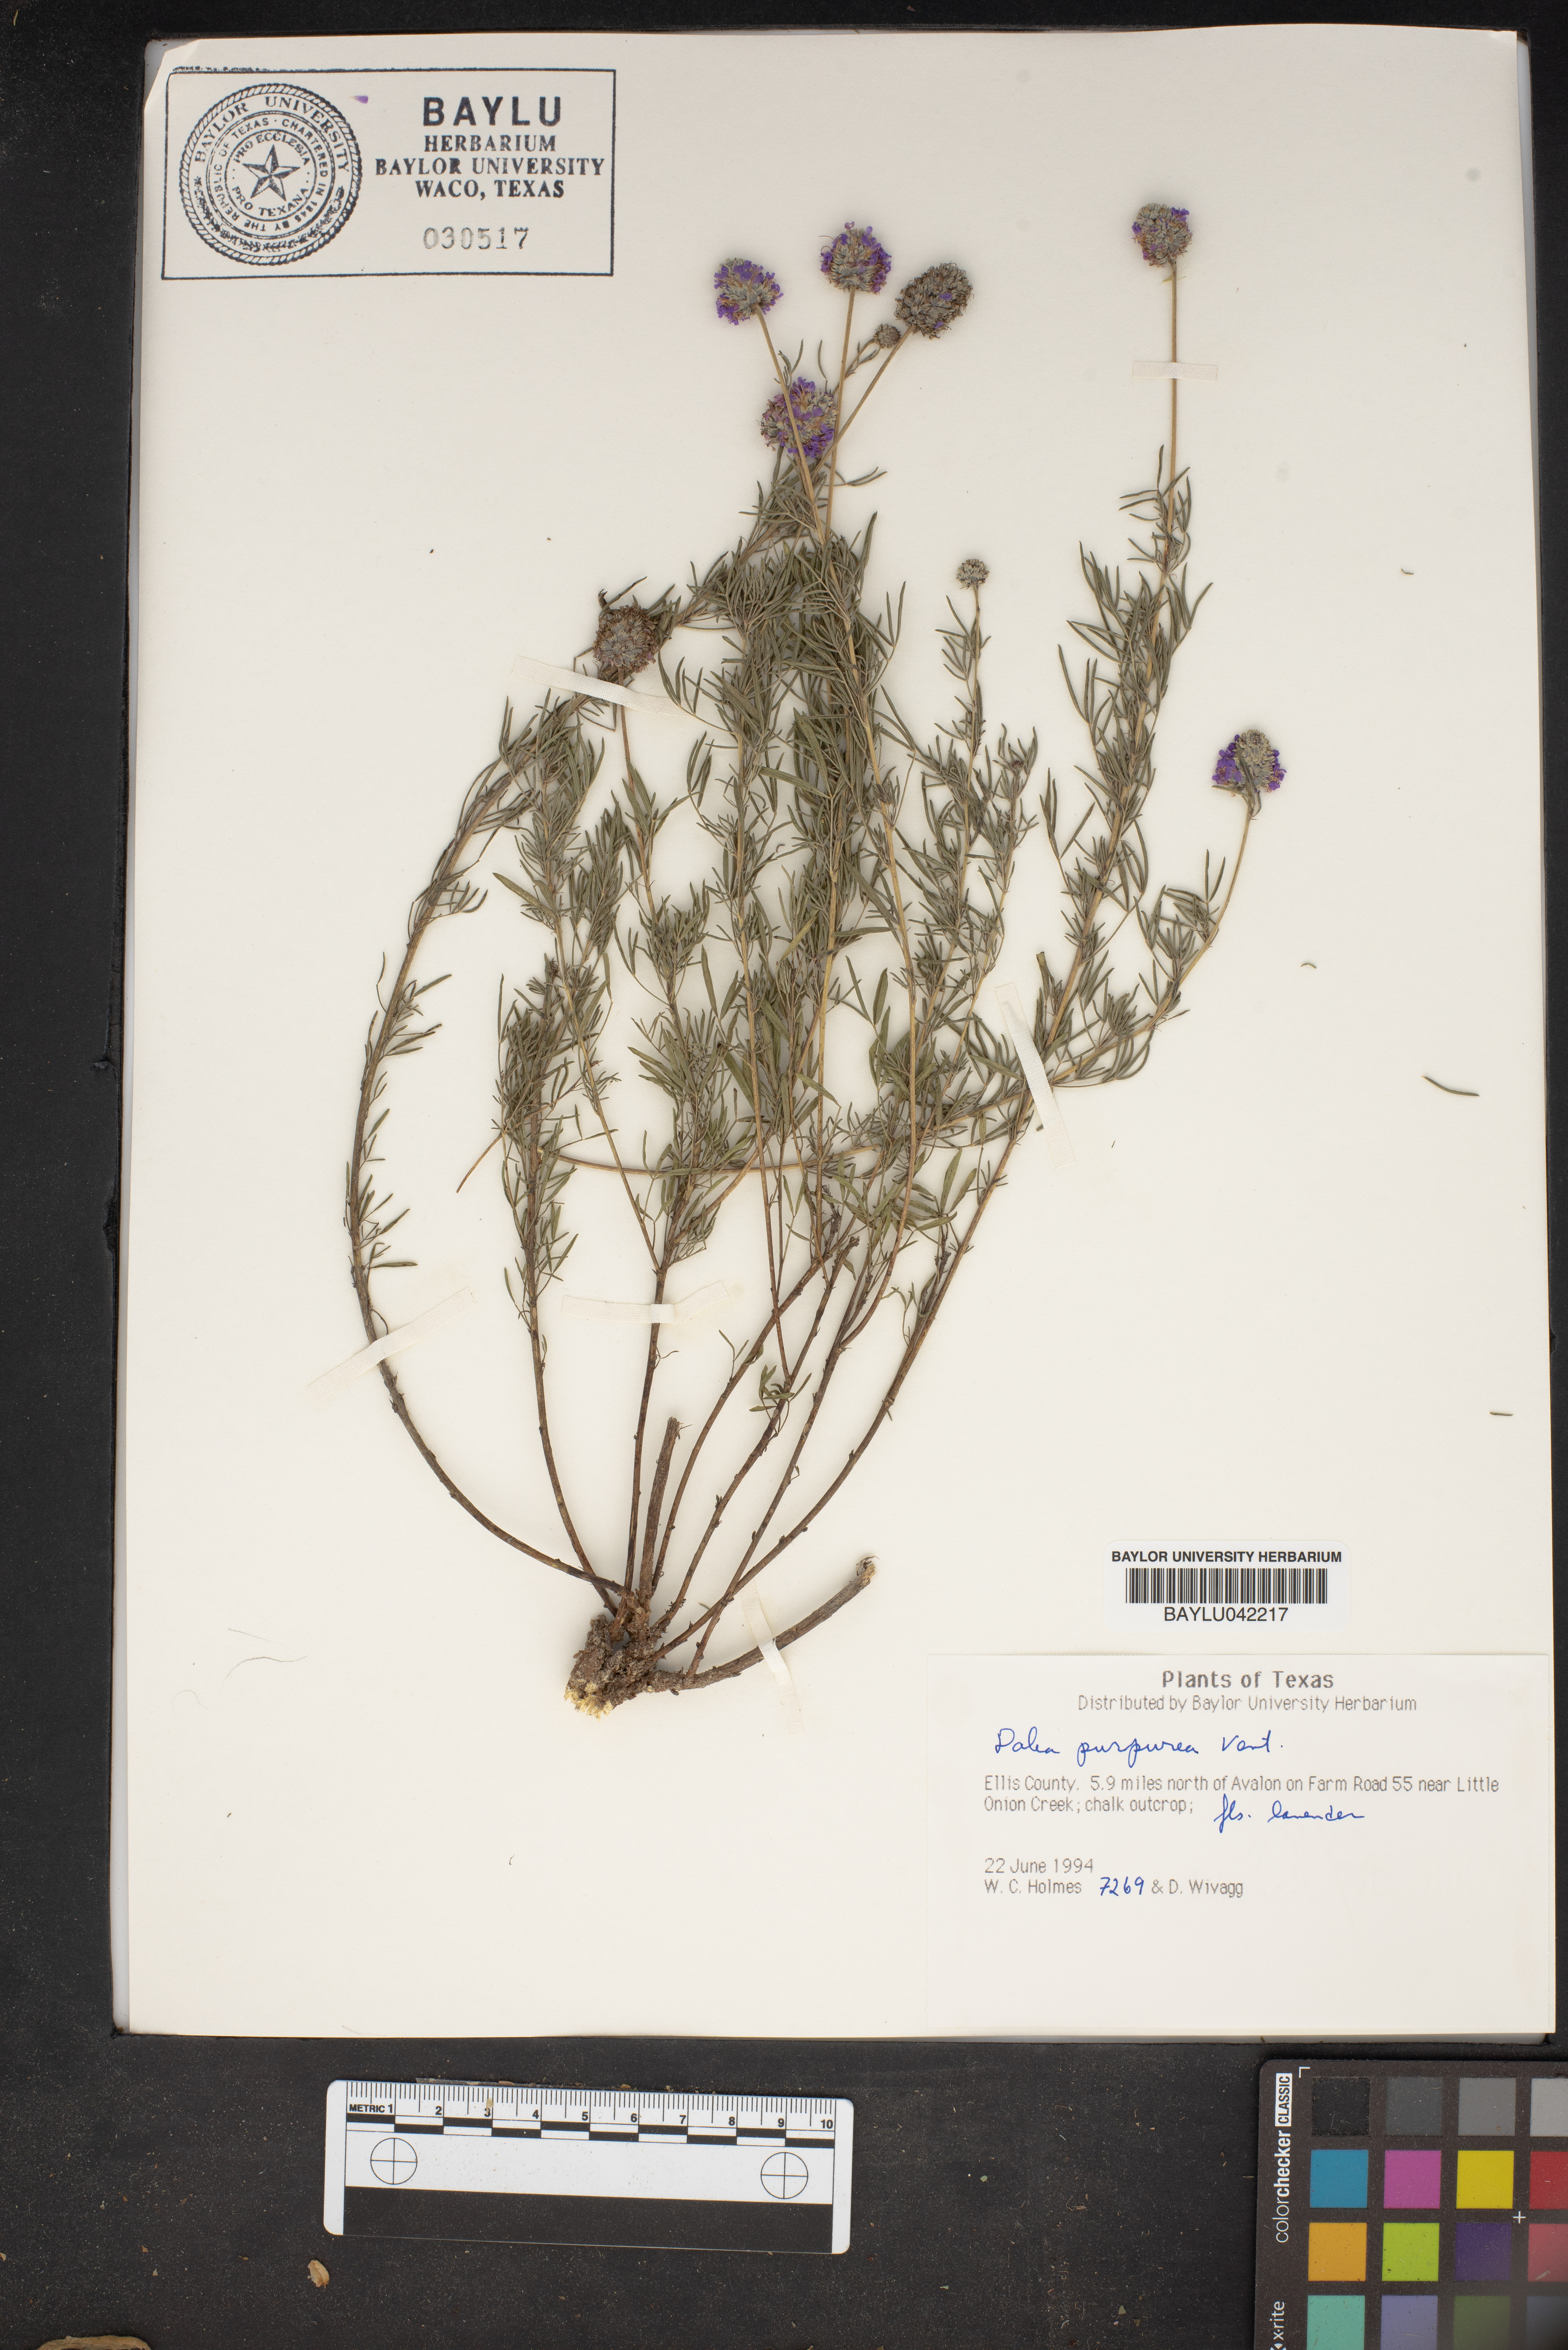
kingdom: Plantae
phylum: Tracheophyta
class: Magnoliopsida
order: Fabales
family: Fabaceae
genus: Dalea
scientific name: Dalea purpurea
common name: Purple prairie-clover
